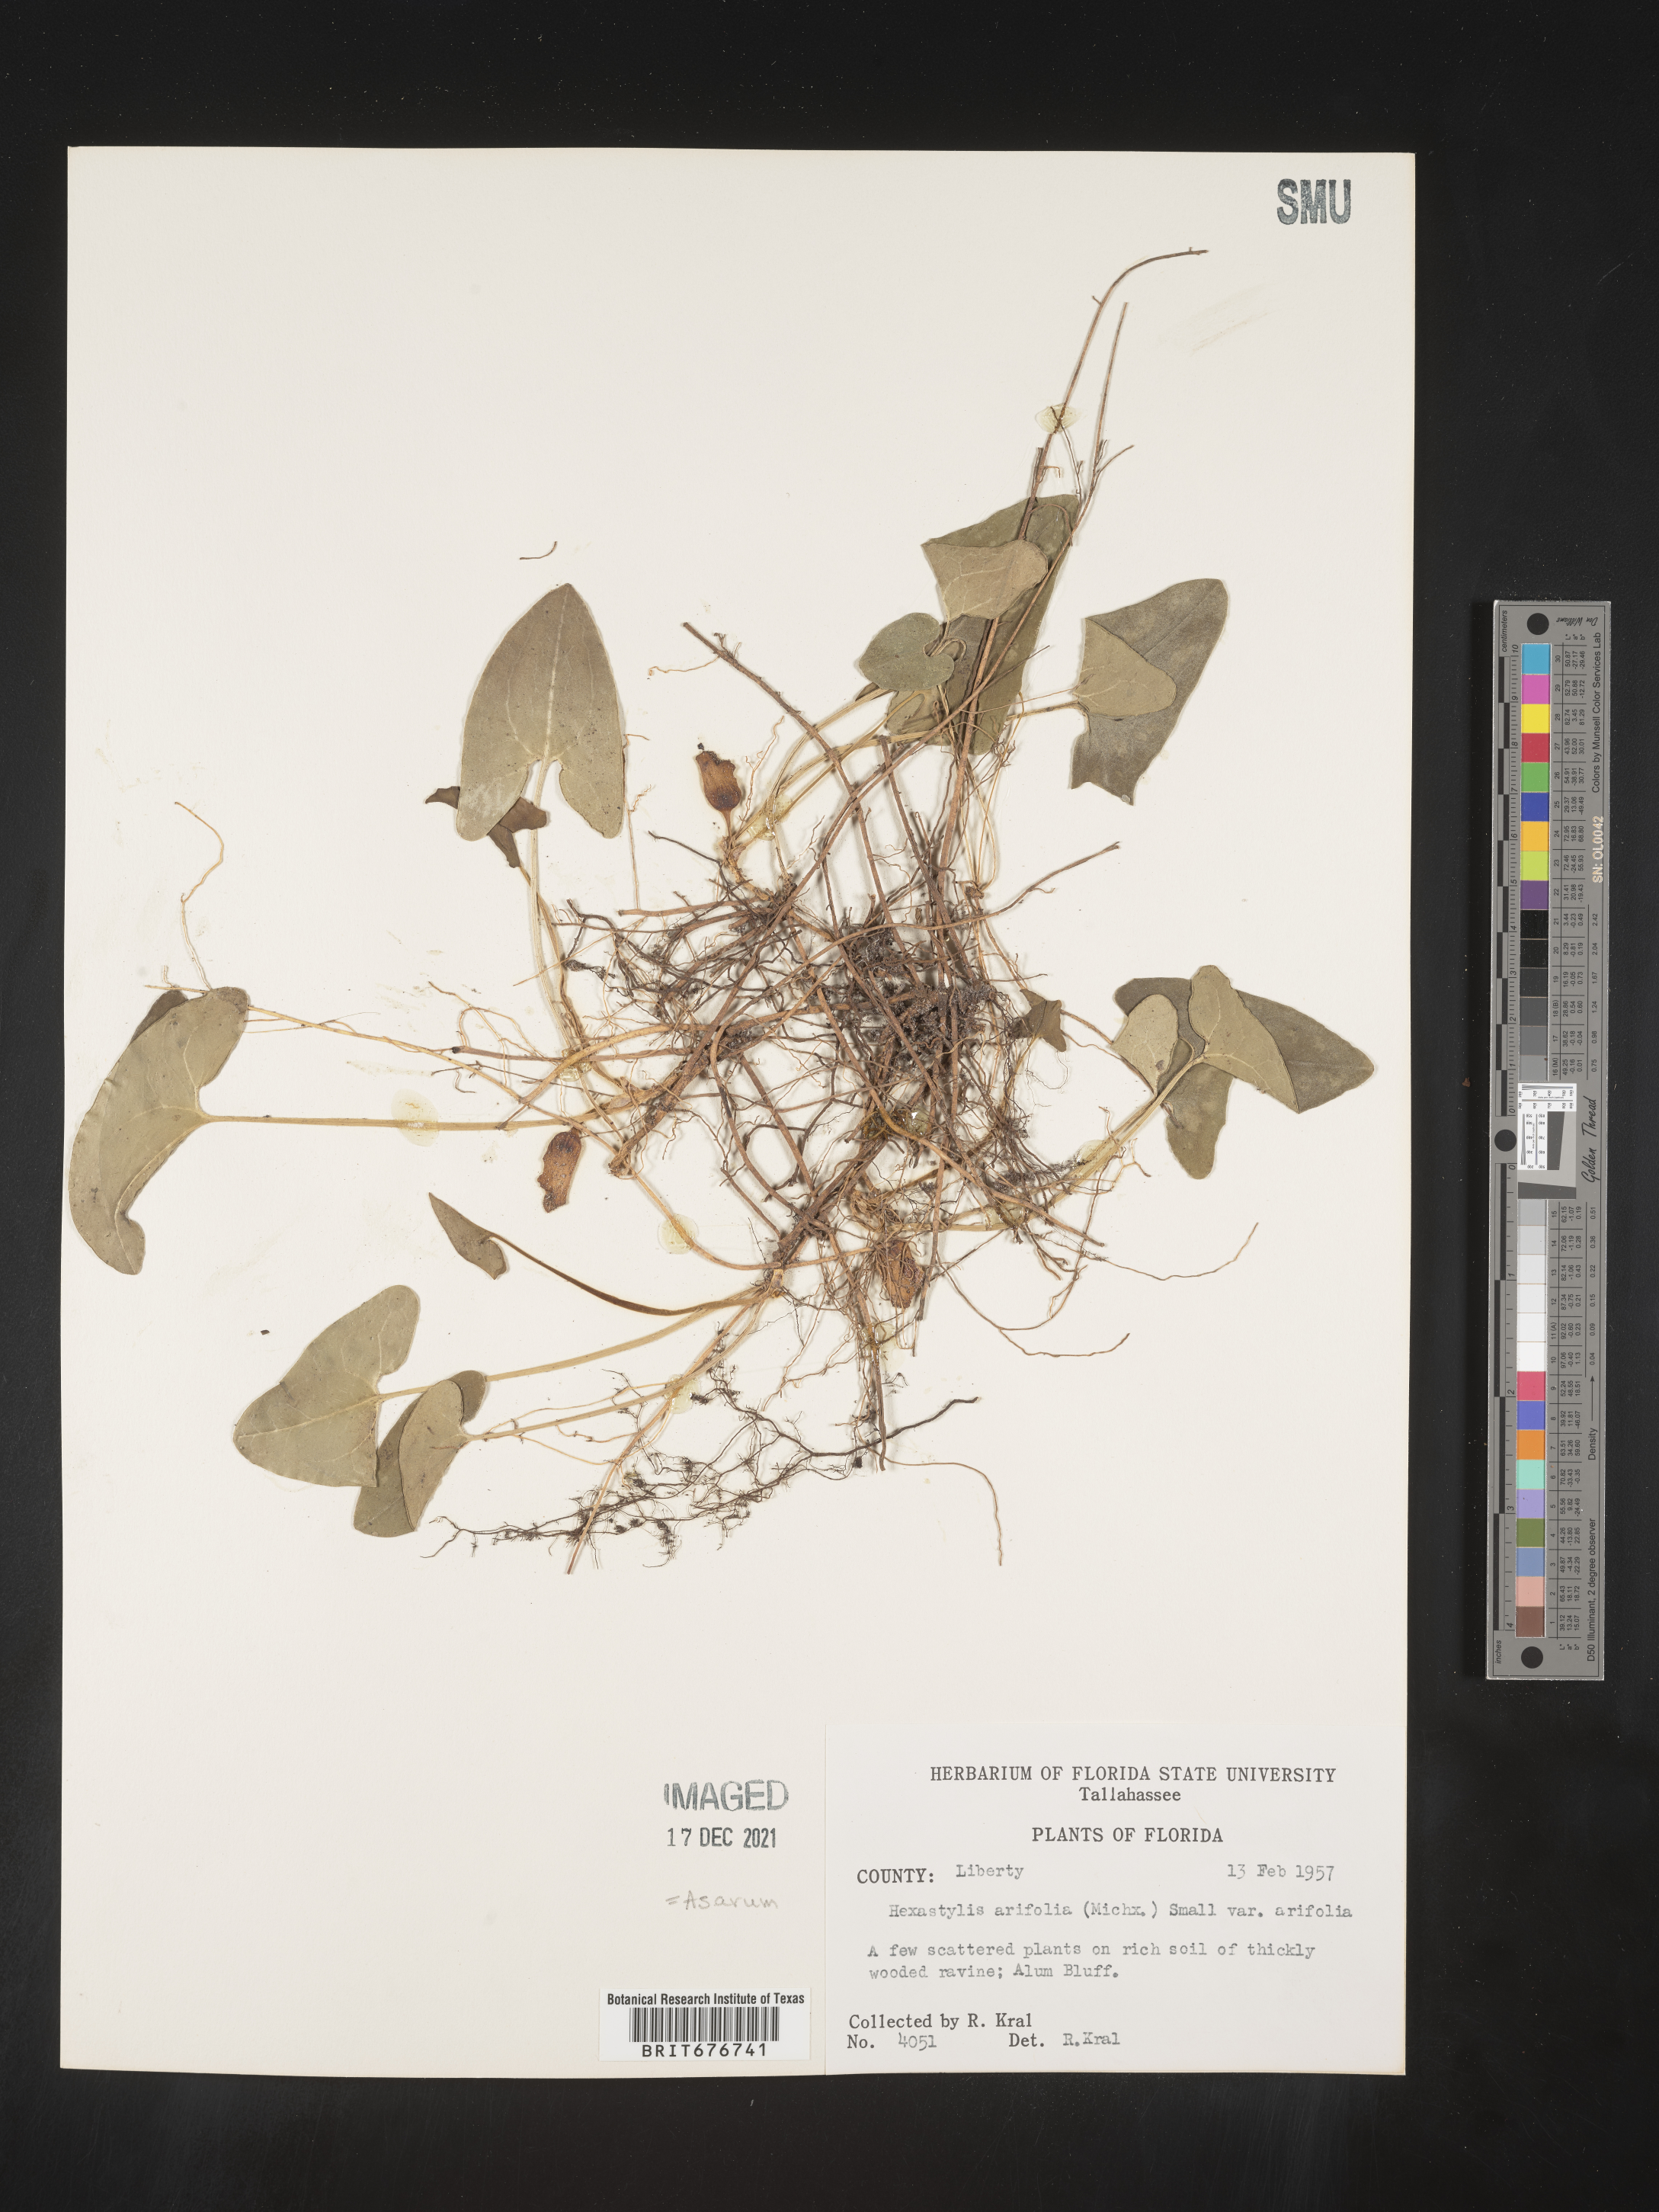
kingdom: Plantae
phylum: Tracheophyta
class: Magnoliopsida
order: Piperales
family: Aristolochiaceae
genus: Hexastylis
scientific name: Hexastylis arifolia
